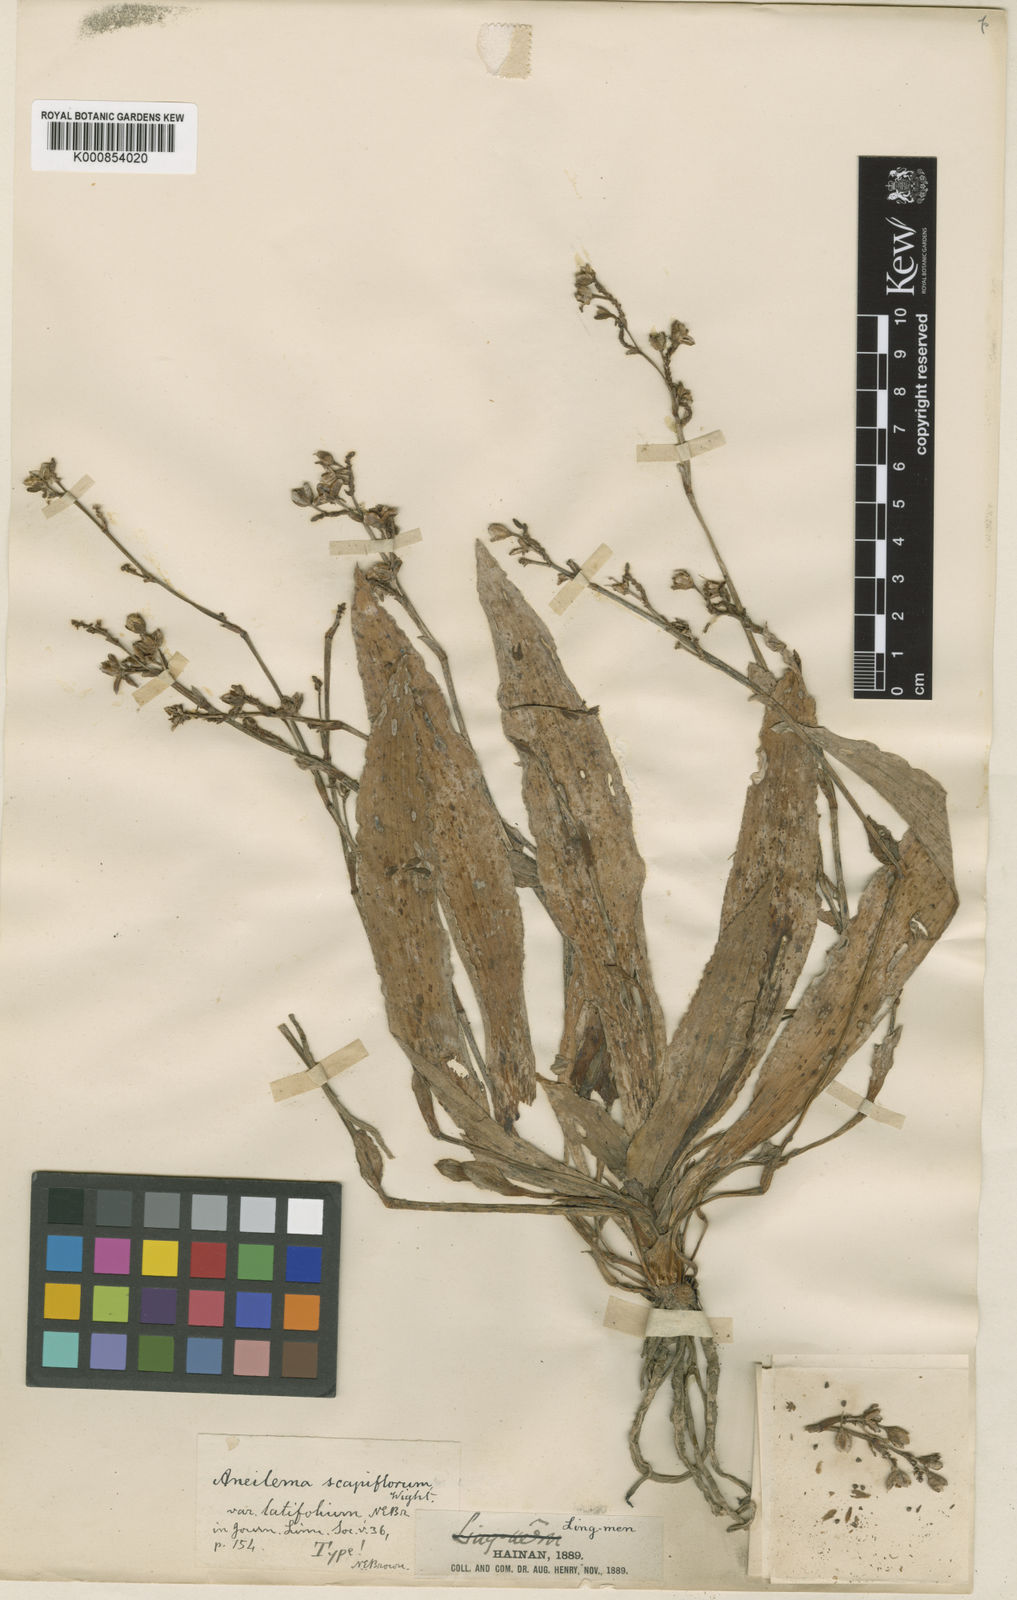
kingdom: Plantae
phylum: Tracheophyta
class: Liliopsida
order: Commelinales
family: Commelinaceae
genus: Murdannia
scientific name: Murdannia edulis
